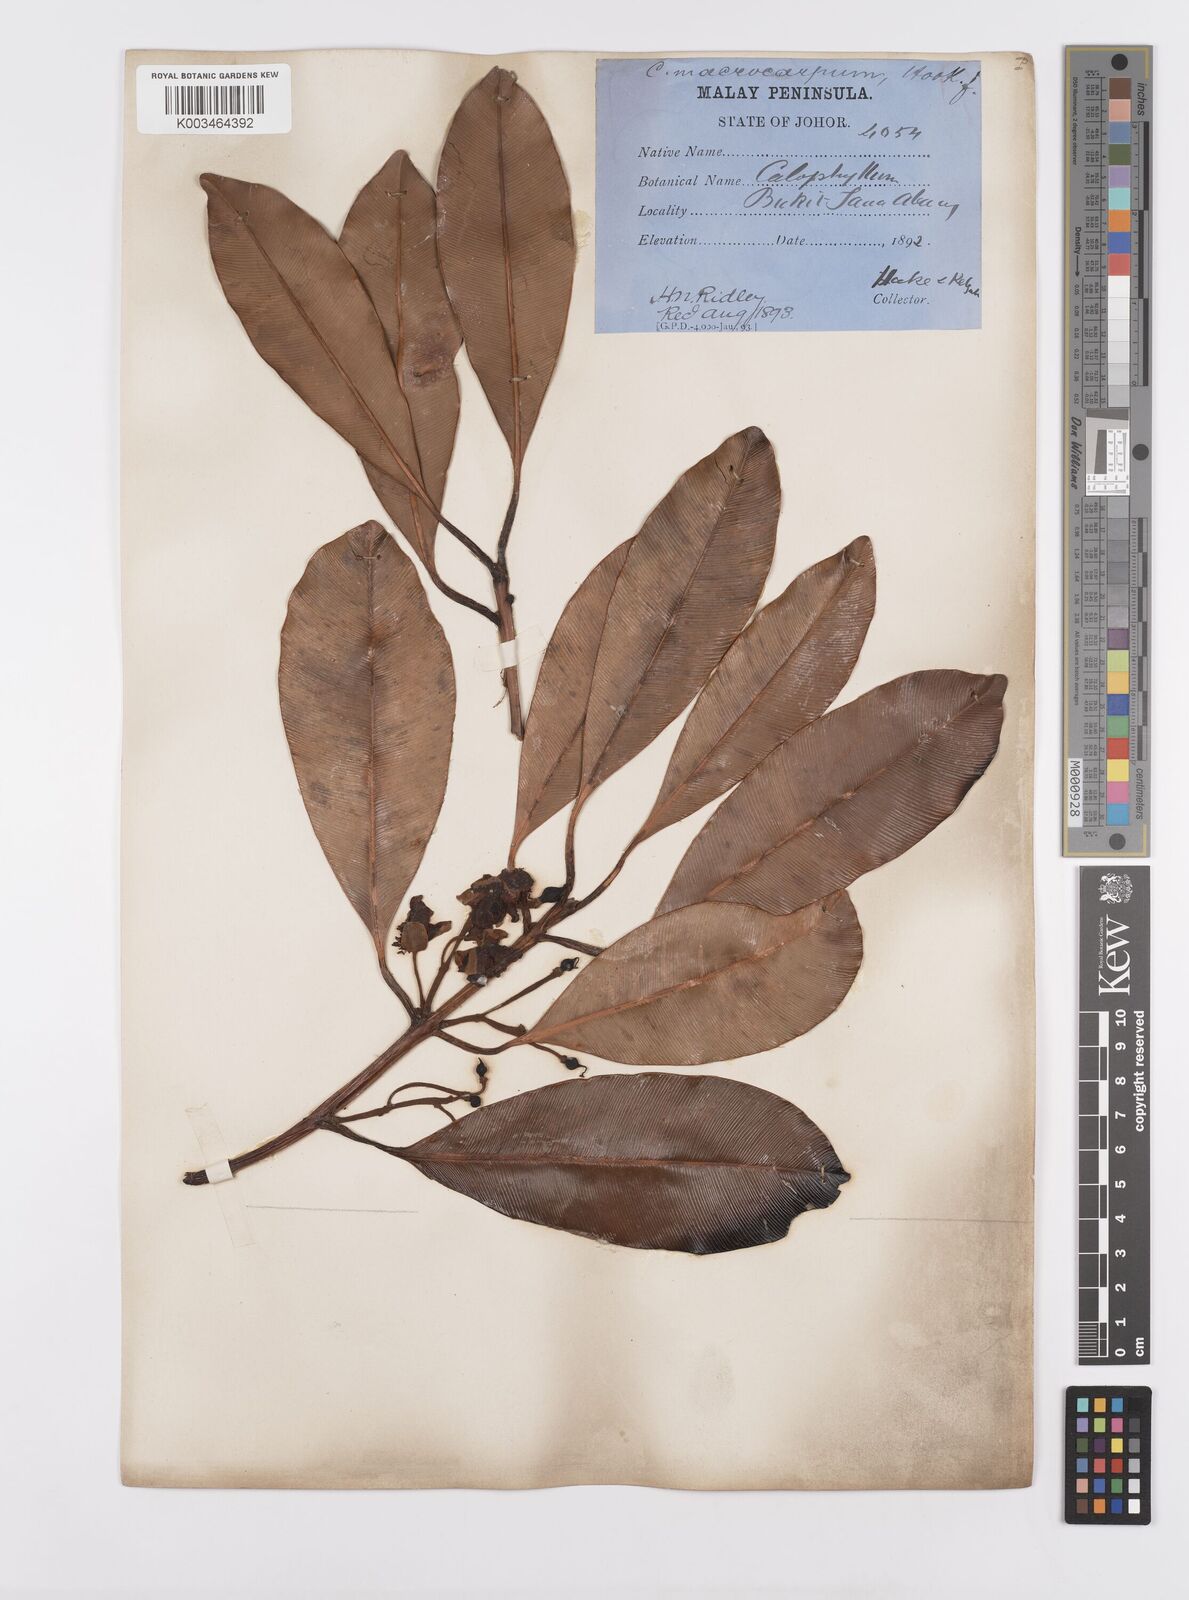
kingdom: Plantae
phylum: Tracheophyta
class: Magnoliopsida
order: Malpighiales
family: Calophyllaceae
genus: Calophyllum
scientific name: Calophyllum macrocarpum
